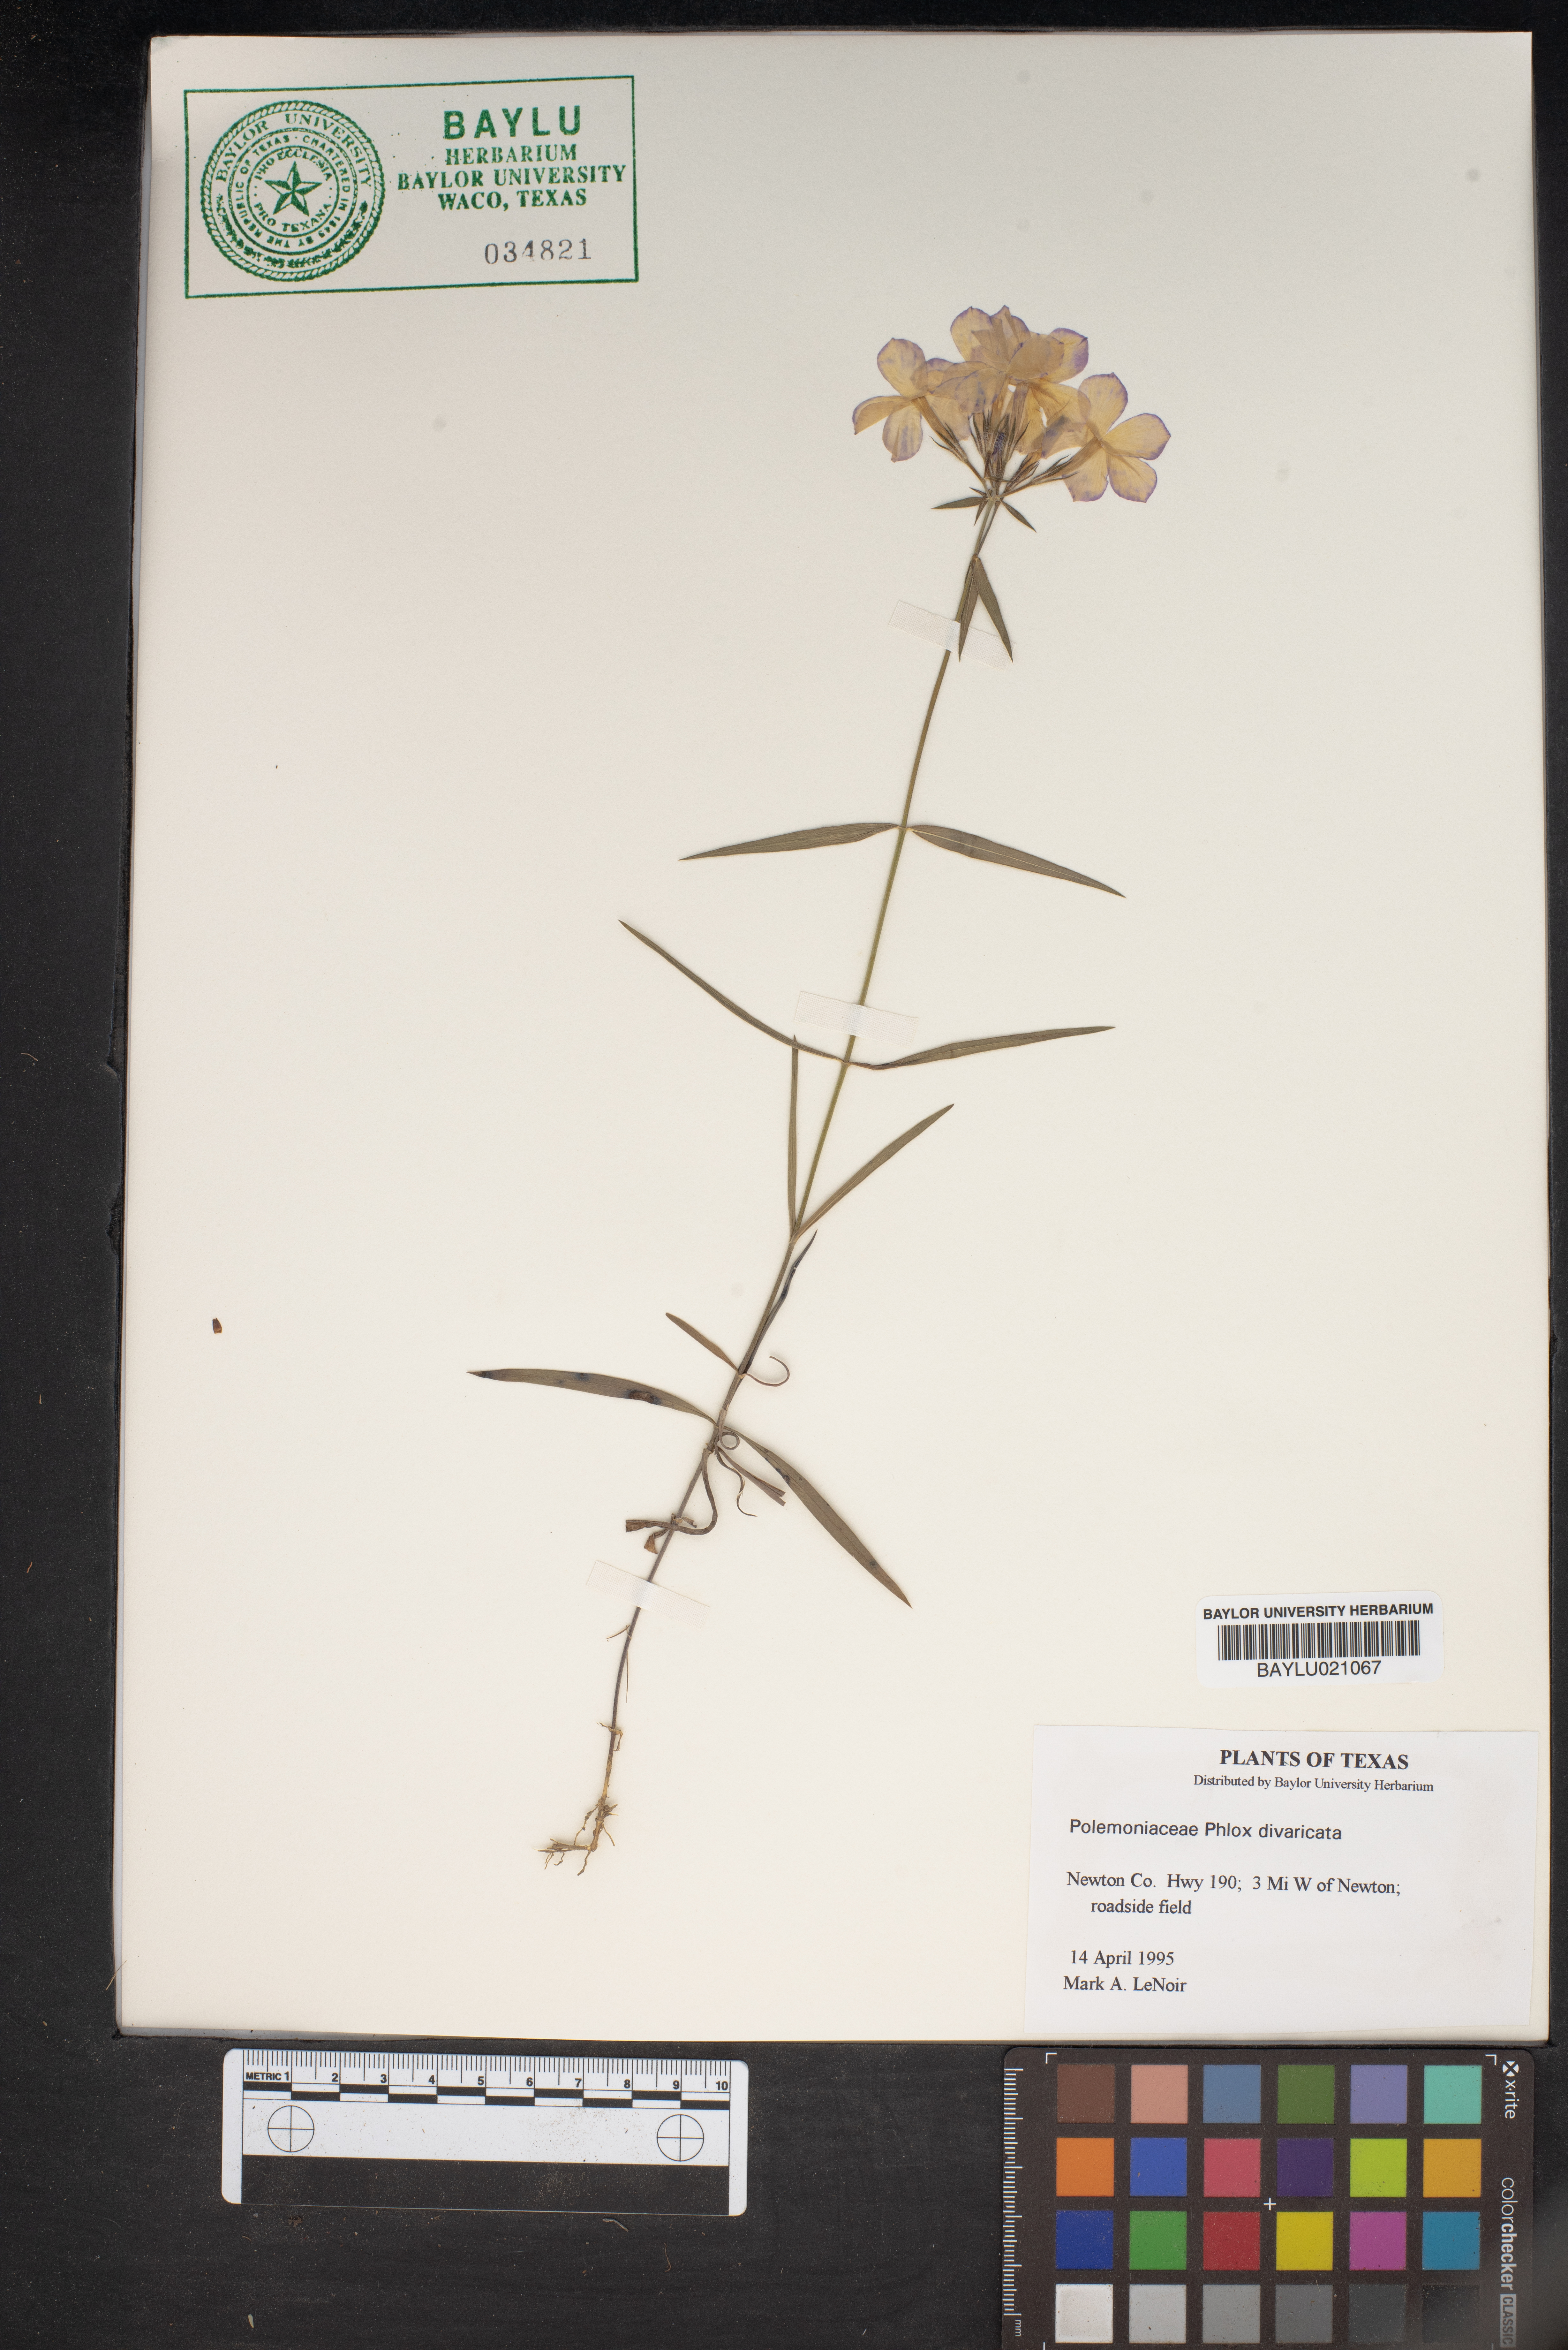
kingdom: Plantae
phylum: Tracheophyta
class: Magnoliopsida
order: Ericales
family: Polemoniaceae
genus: Phlox
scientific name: Phlox divaricata
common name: Blue phlox
